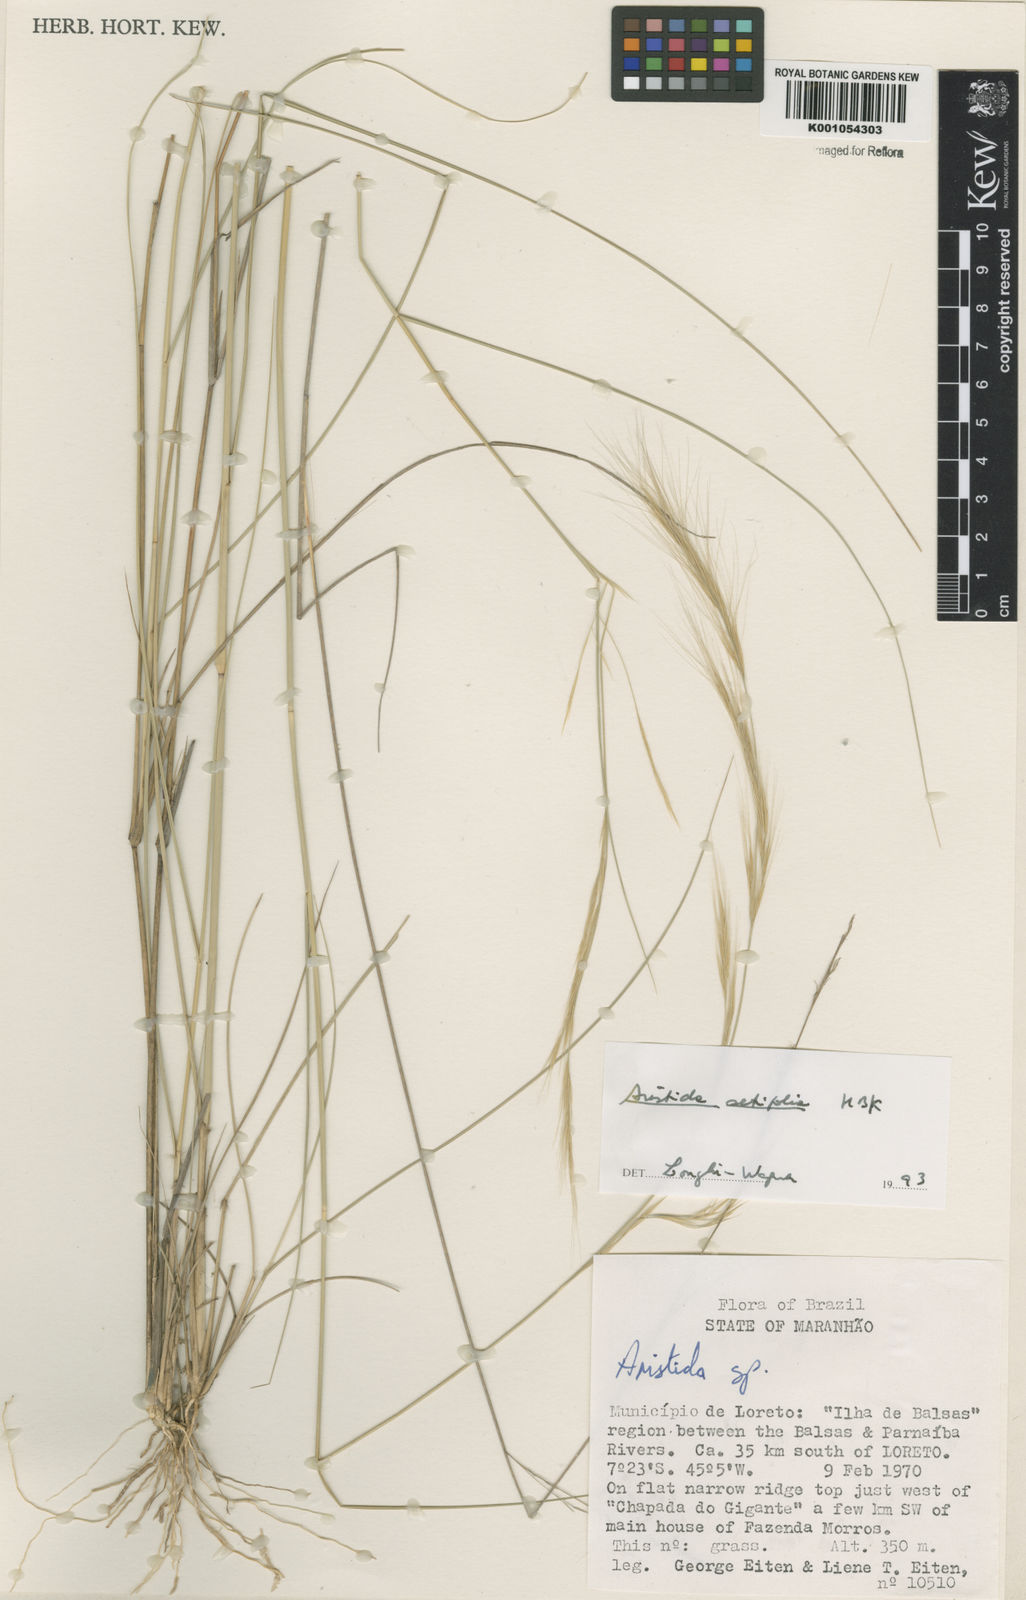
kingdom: Plantae
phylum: Tracheophyta
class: Liliopsida
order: Poales
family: Poaceae
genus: Aristida
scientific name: Aristida setifolia
